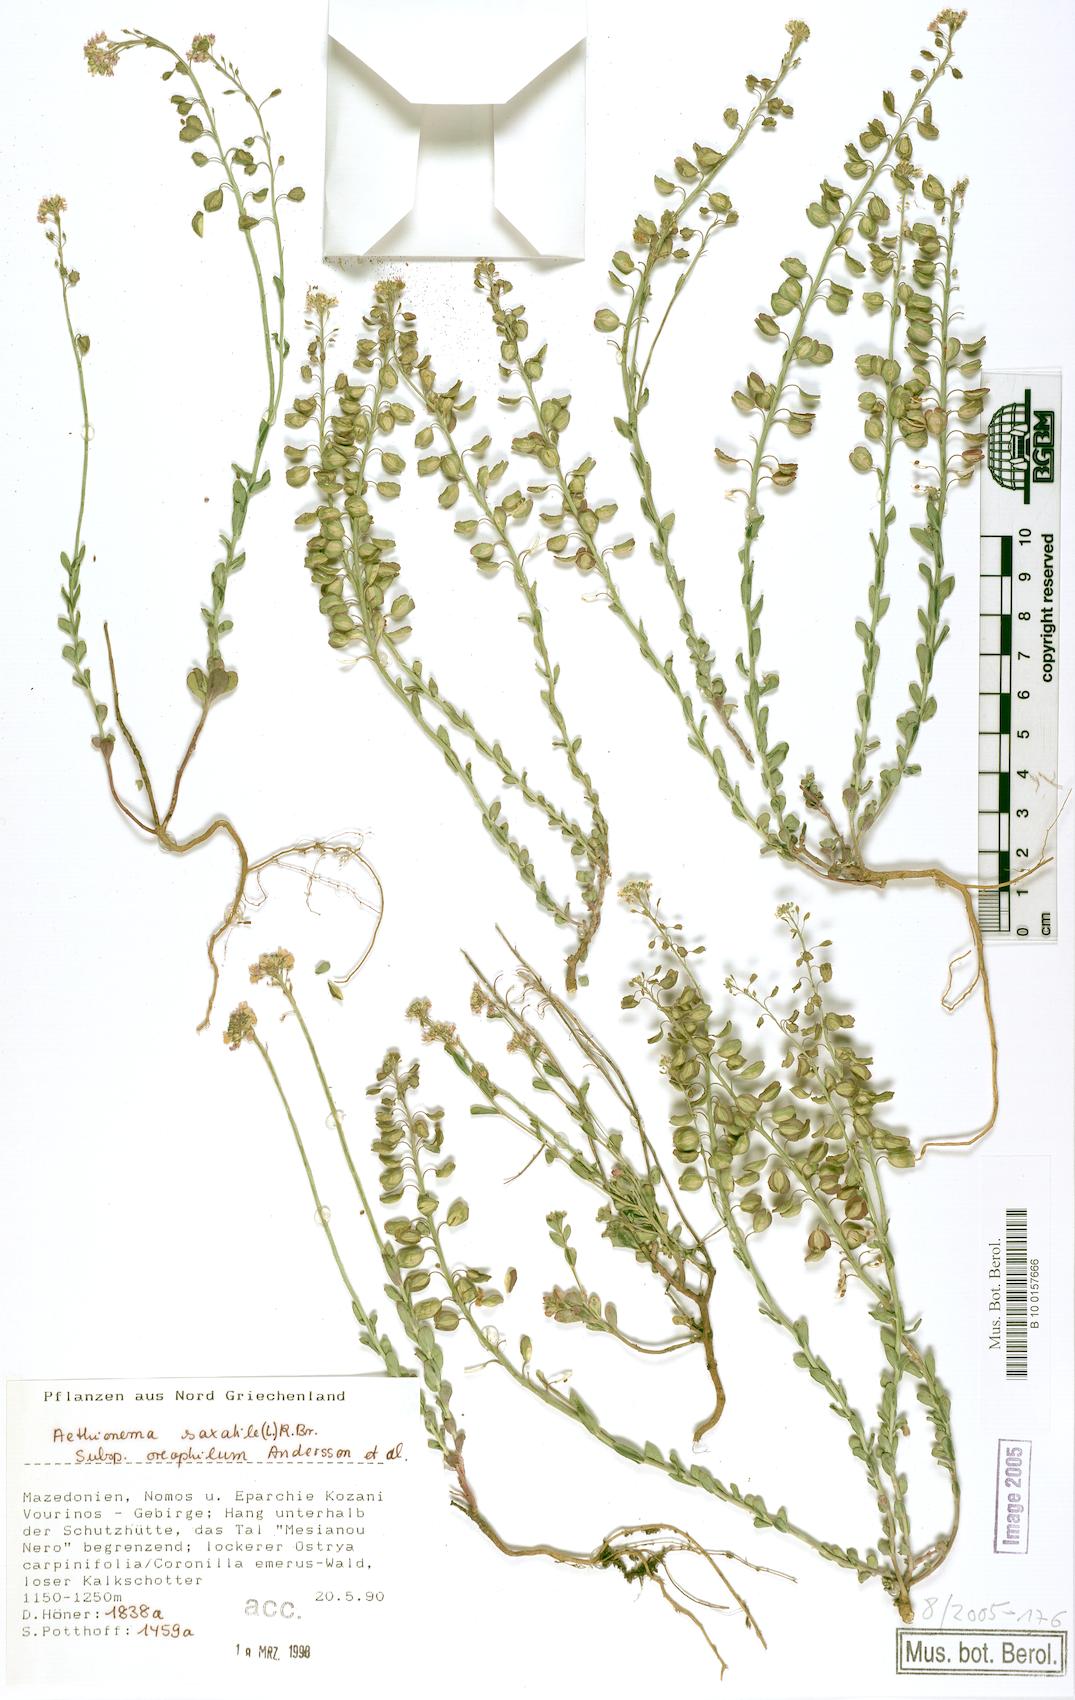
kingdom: Plantae
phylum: Tracheophyta
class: Magnoliopsida
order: Brassicales
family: Brassicaceae
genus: Aethionema
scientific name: Aethionema saxatile
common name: Burnt candytuft
